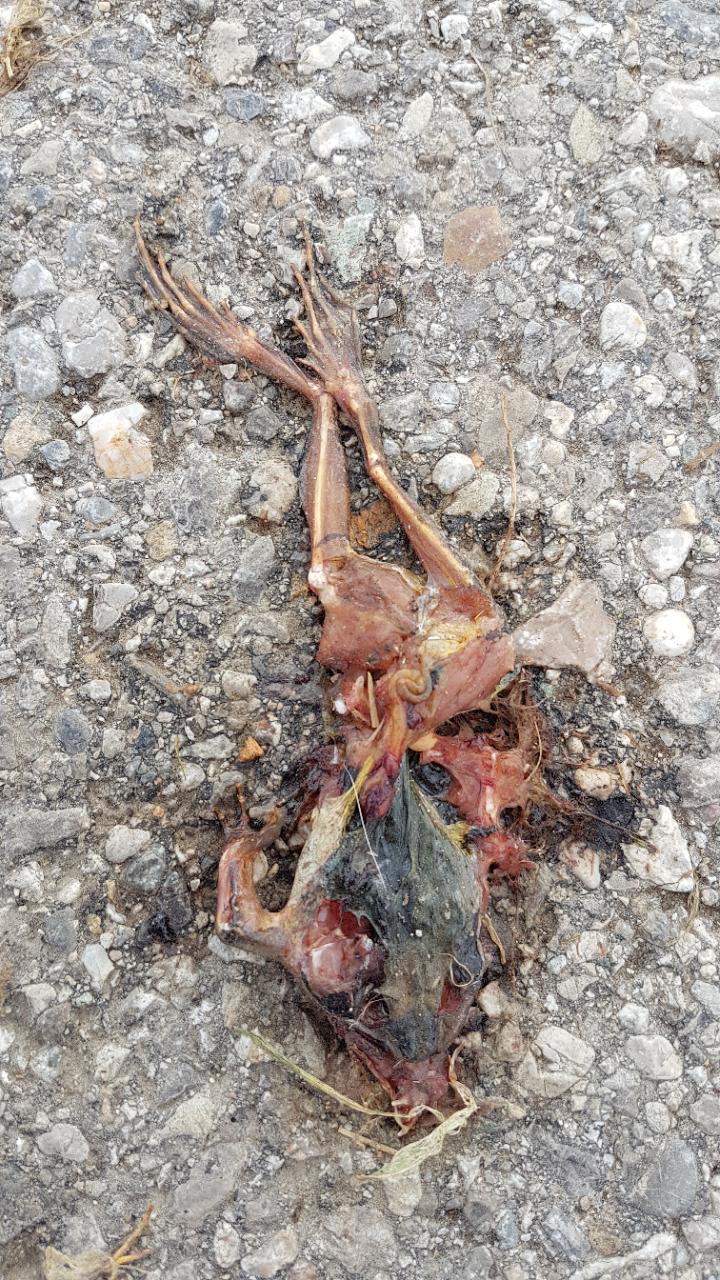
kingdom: Animalia
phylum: Chordata
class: Amphibia
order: Anura
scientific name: Anura
